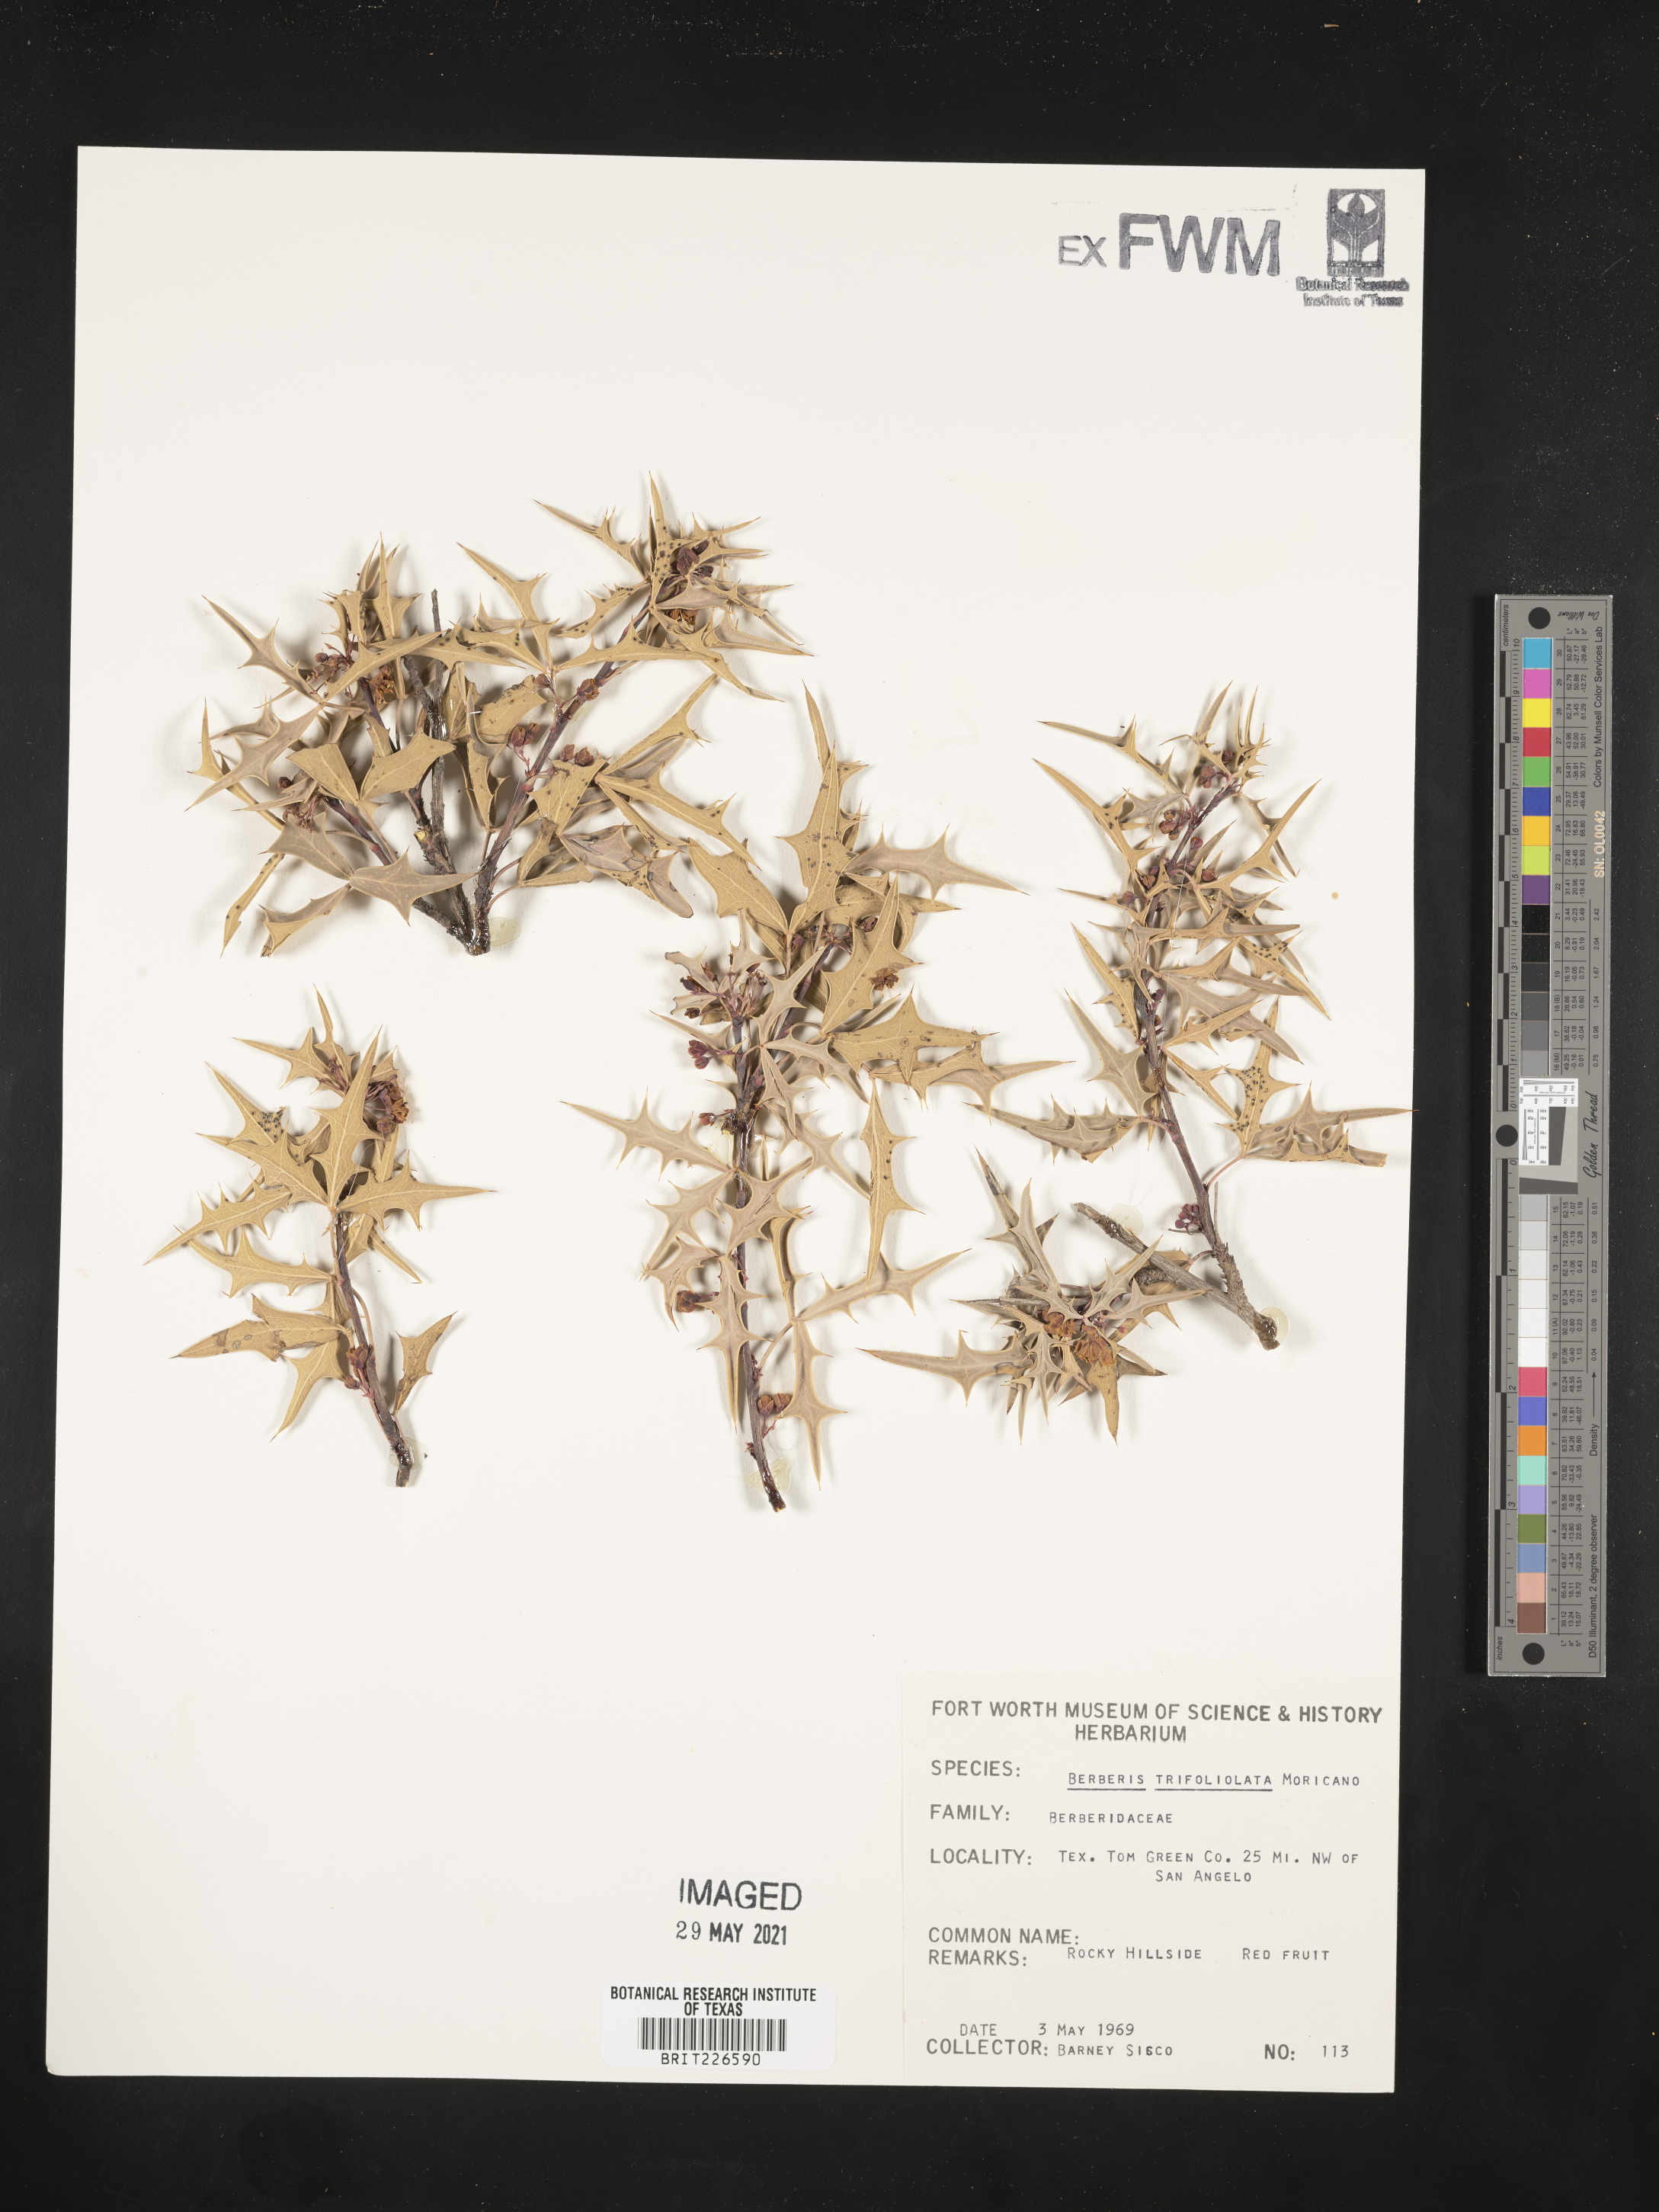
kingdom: Plantae
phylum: Tracheophyta
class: Magnoliopsida
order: Ranunculales
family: Berberidaceae
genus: Alloberberis
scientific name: Alloberberis trifoliolata
